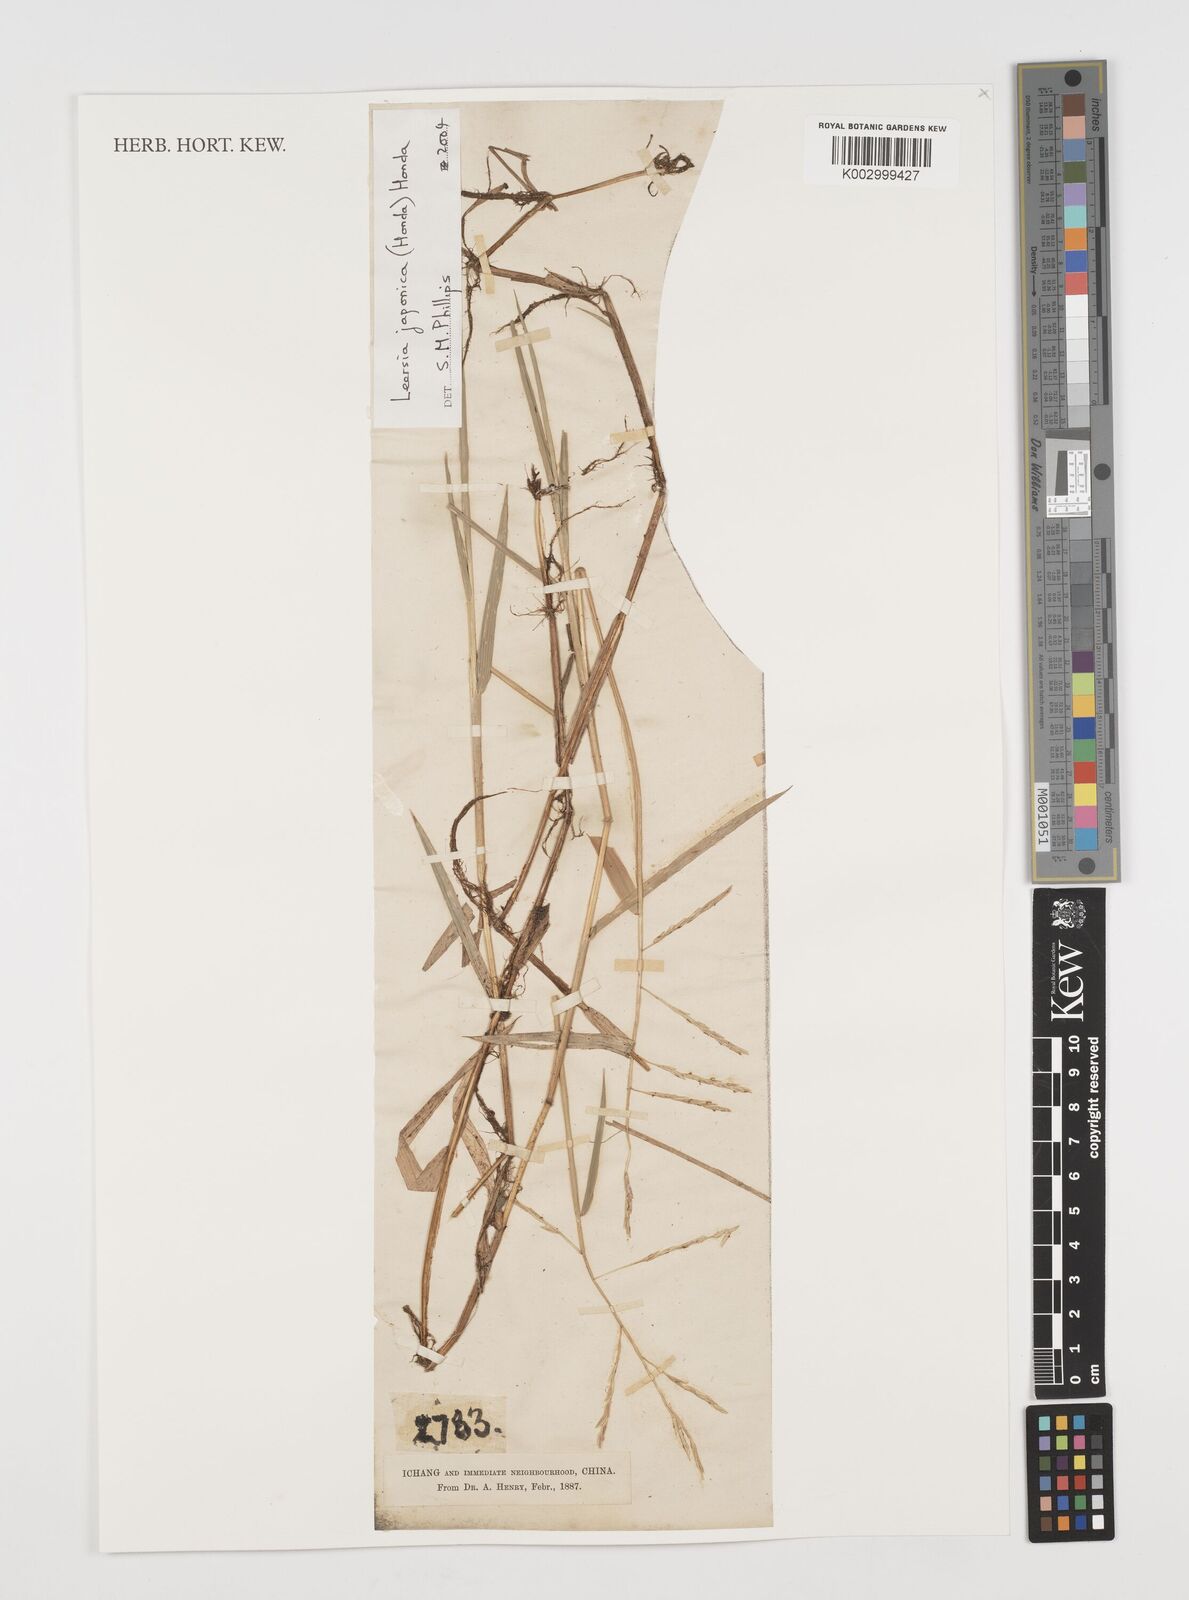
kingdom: Plantae
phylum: Tracheophyta
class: Liliopsida
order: Poales
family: Poaceae
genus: Leersia
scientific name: Leersia japonica
